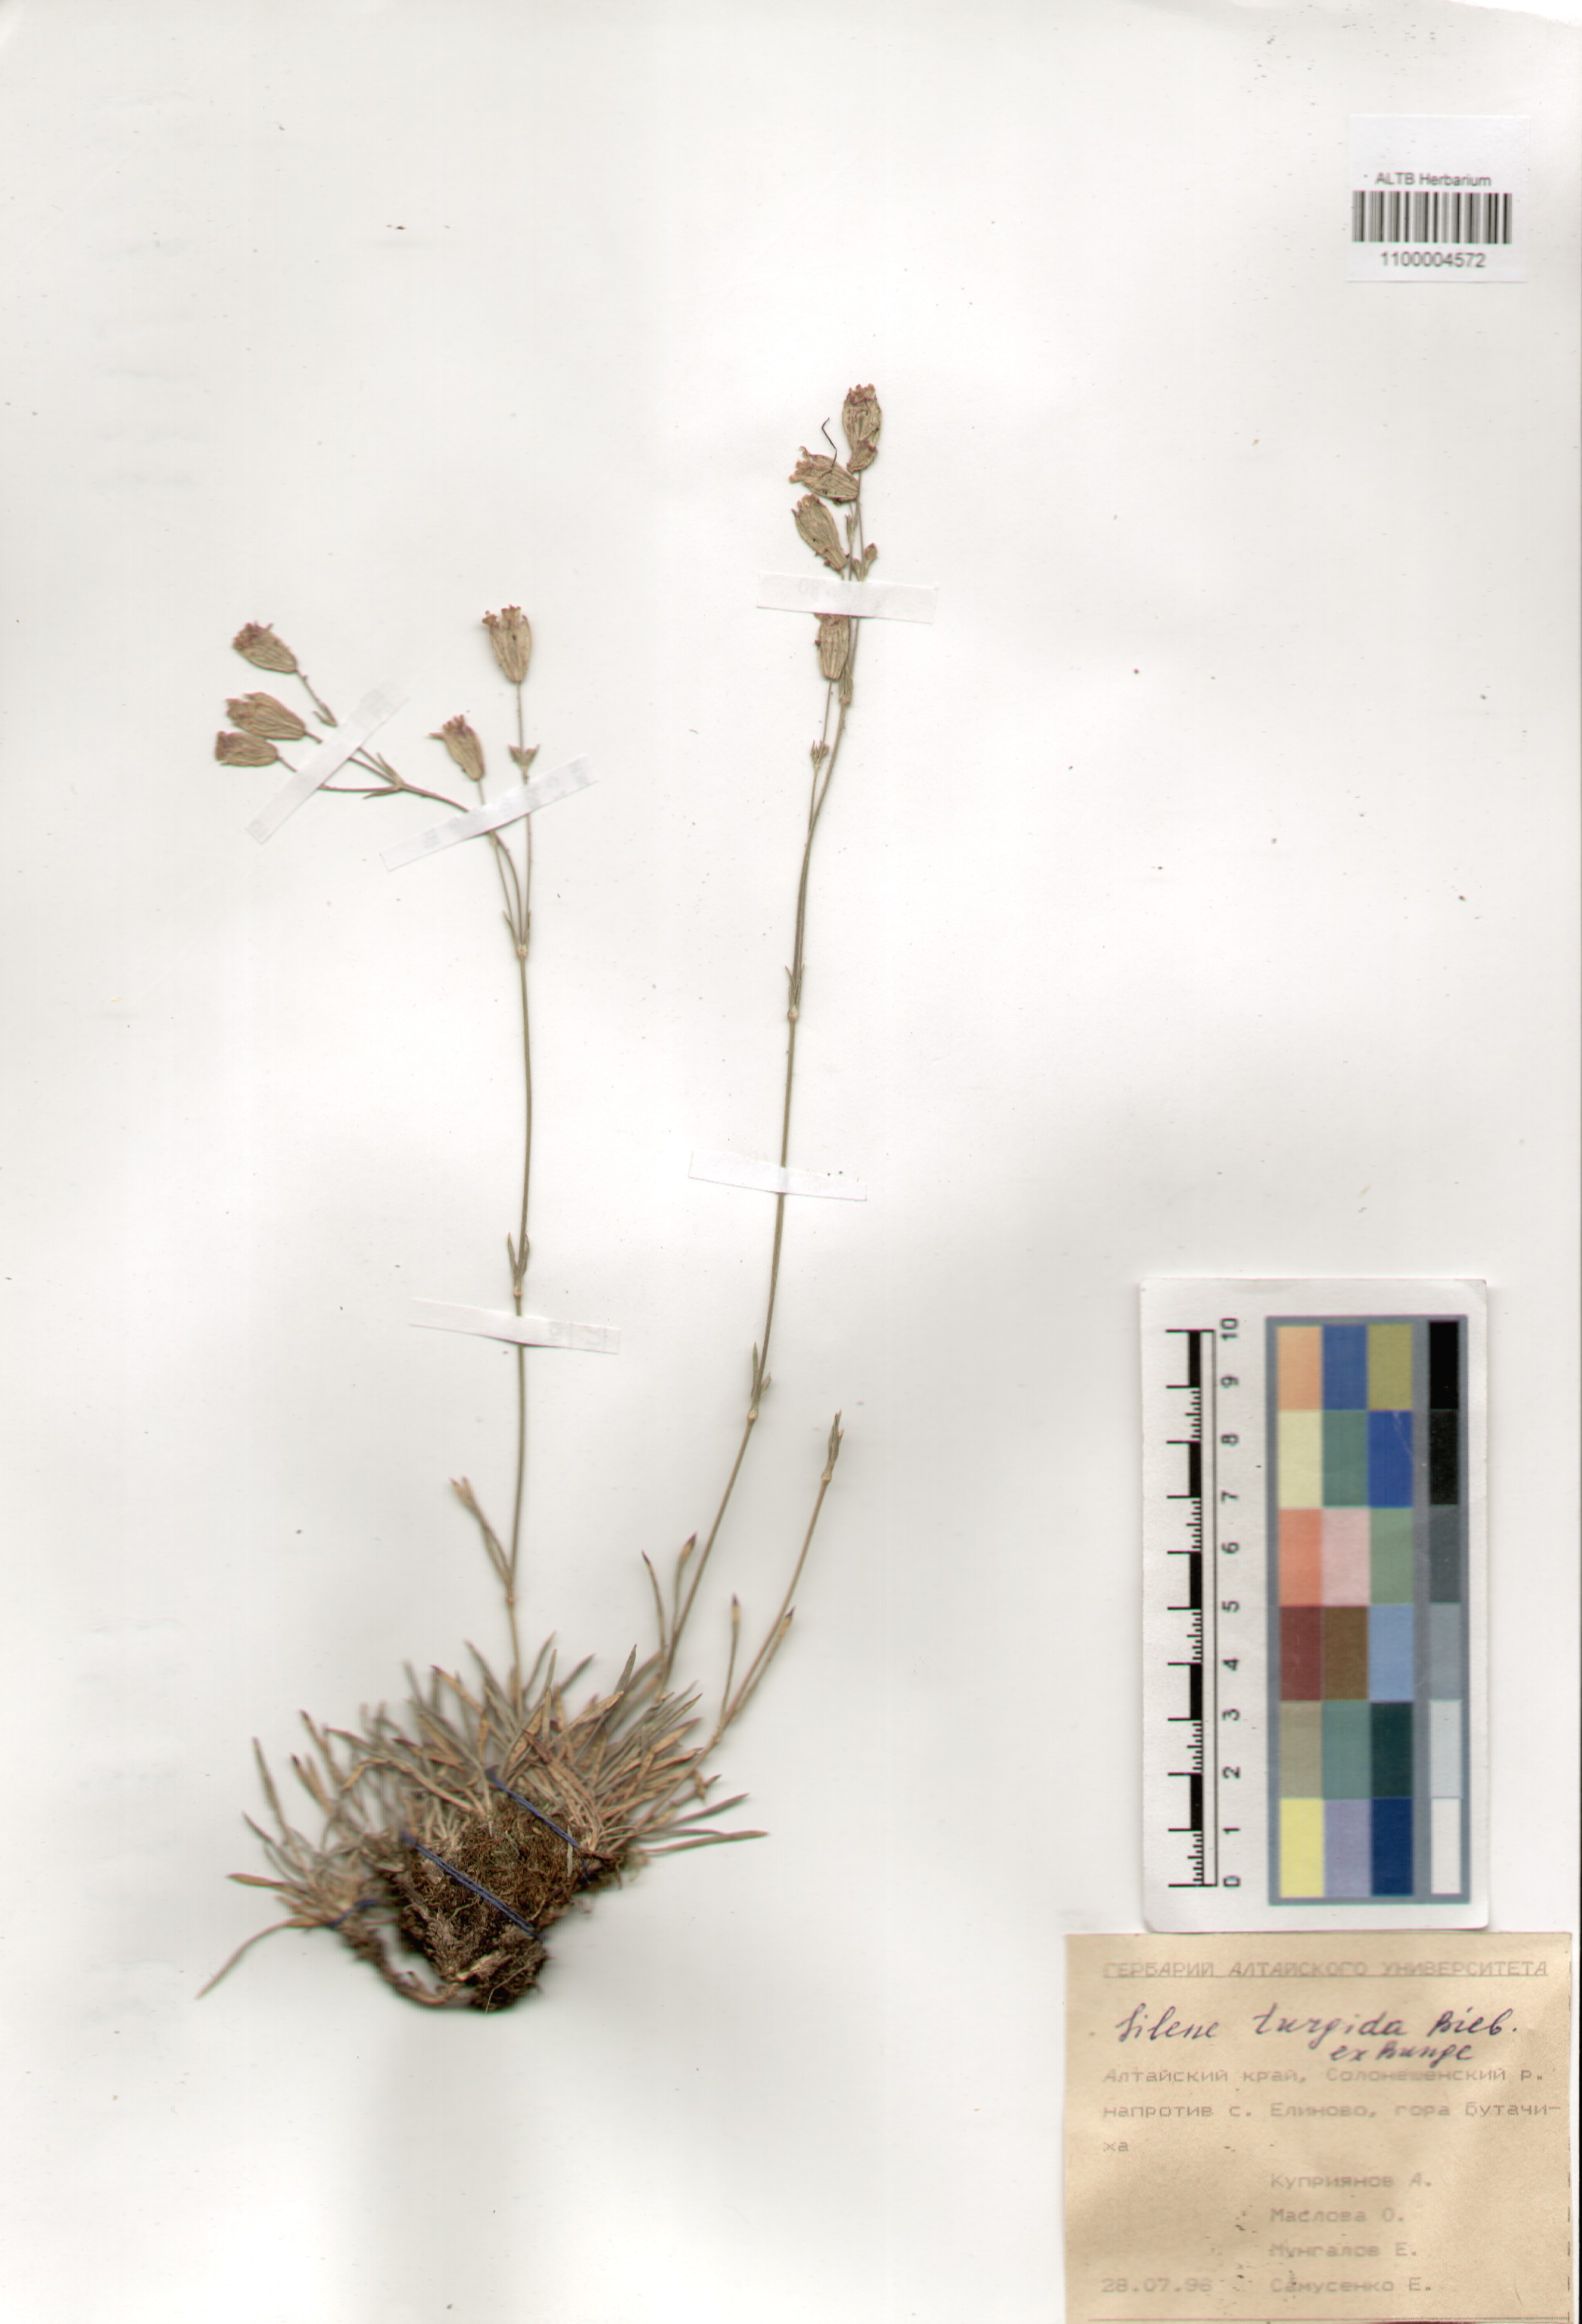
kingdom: Plantae
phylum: Tracheophyta
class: Magnoliopsida
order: Caryophyllales
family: Caryophyllaceae
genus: Silene
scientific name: Silene turgida
